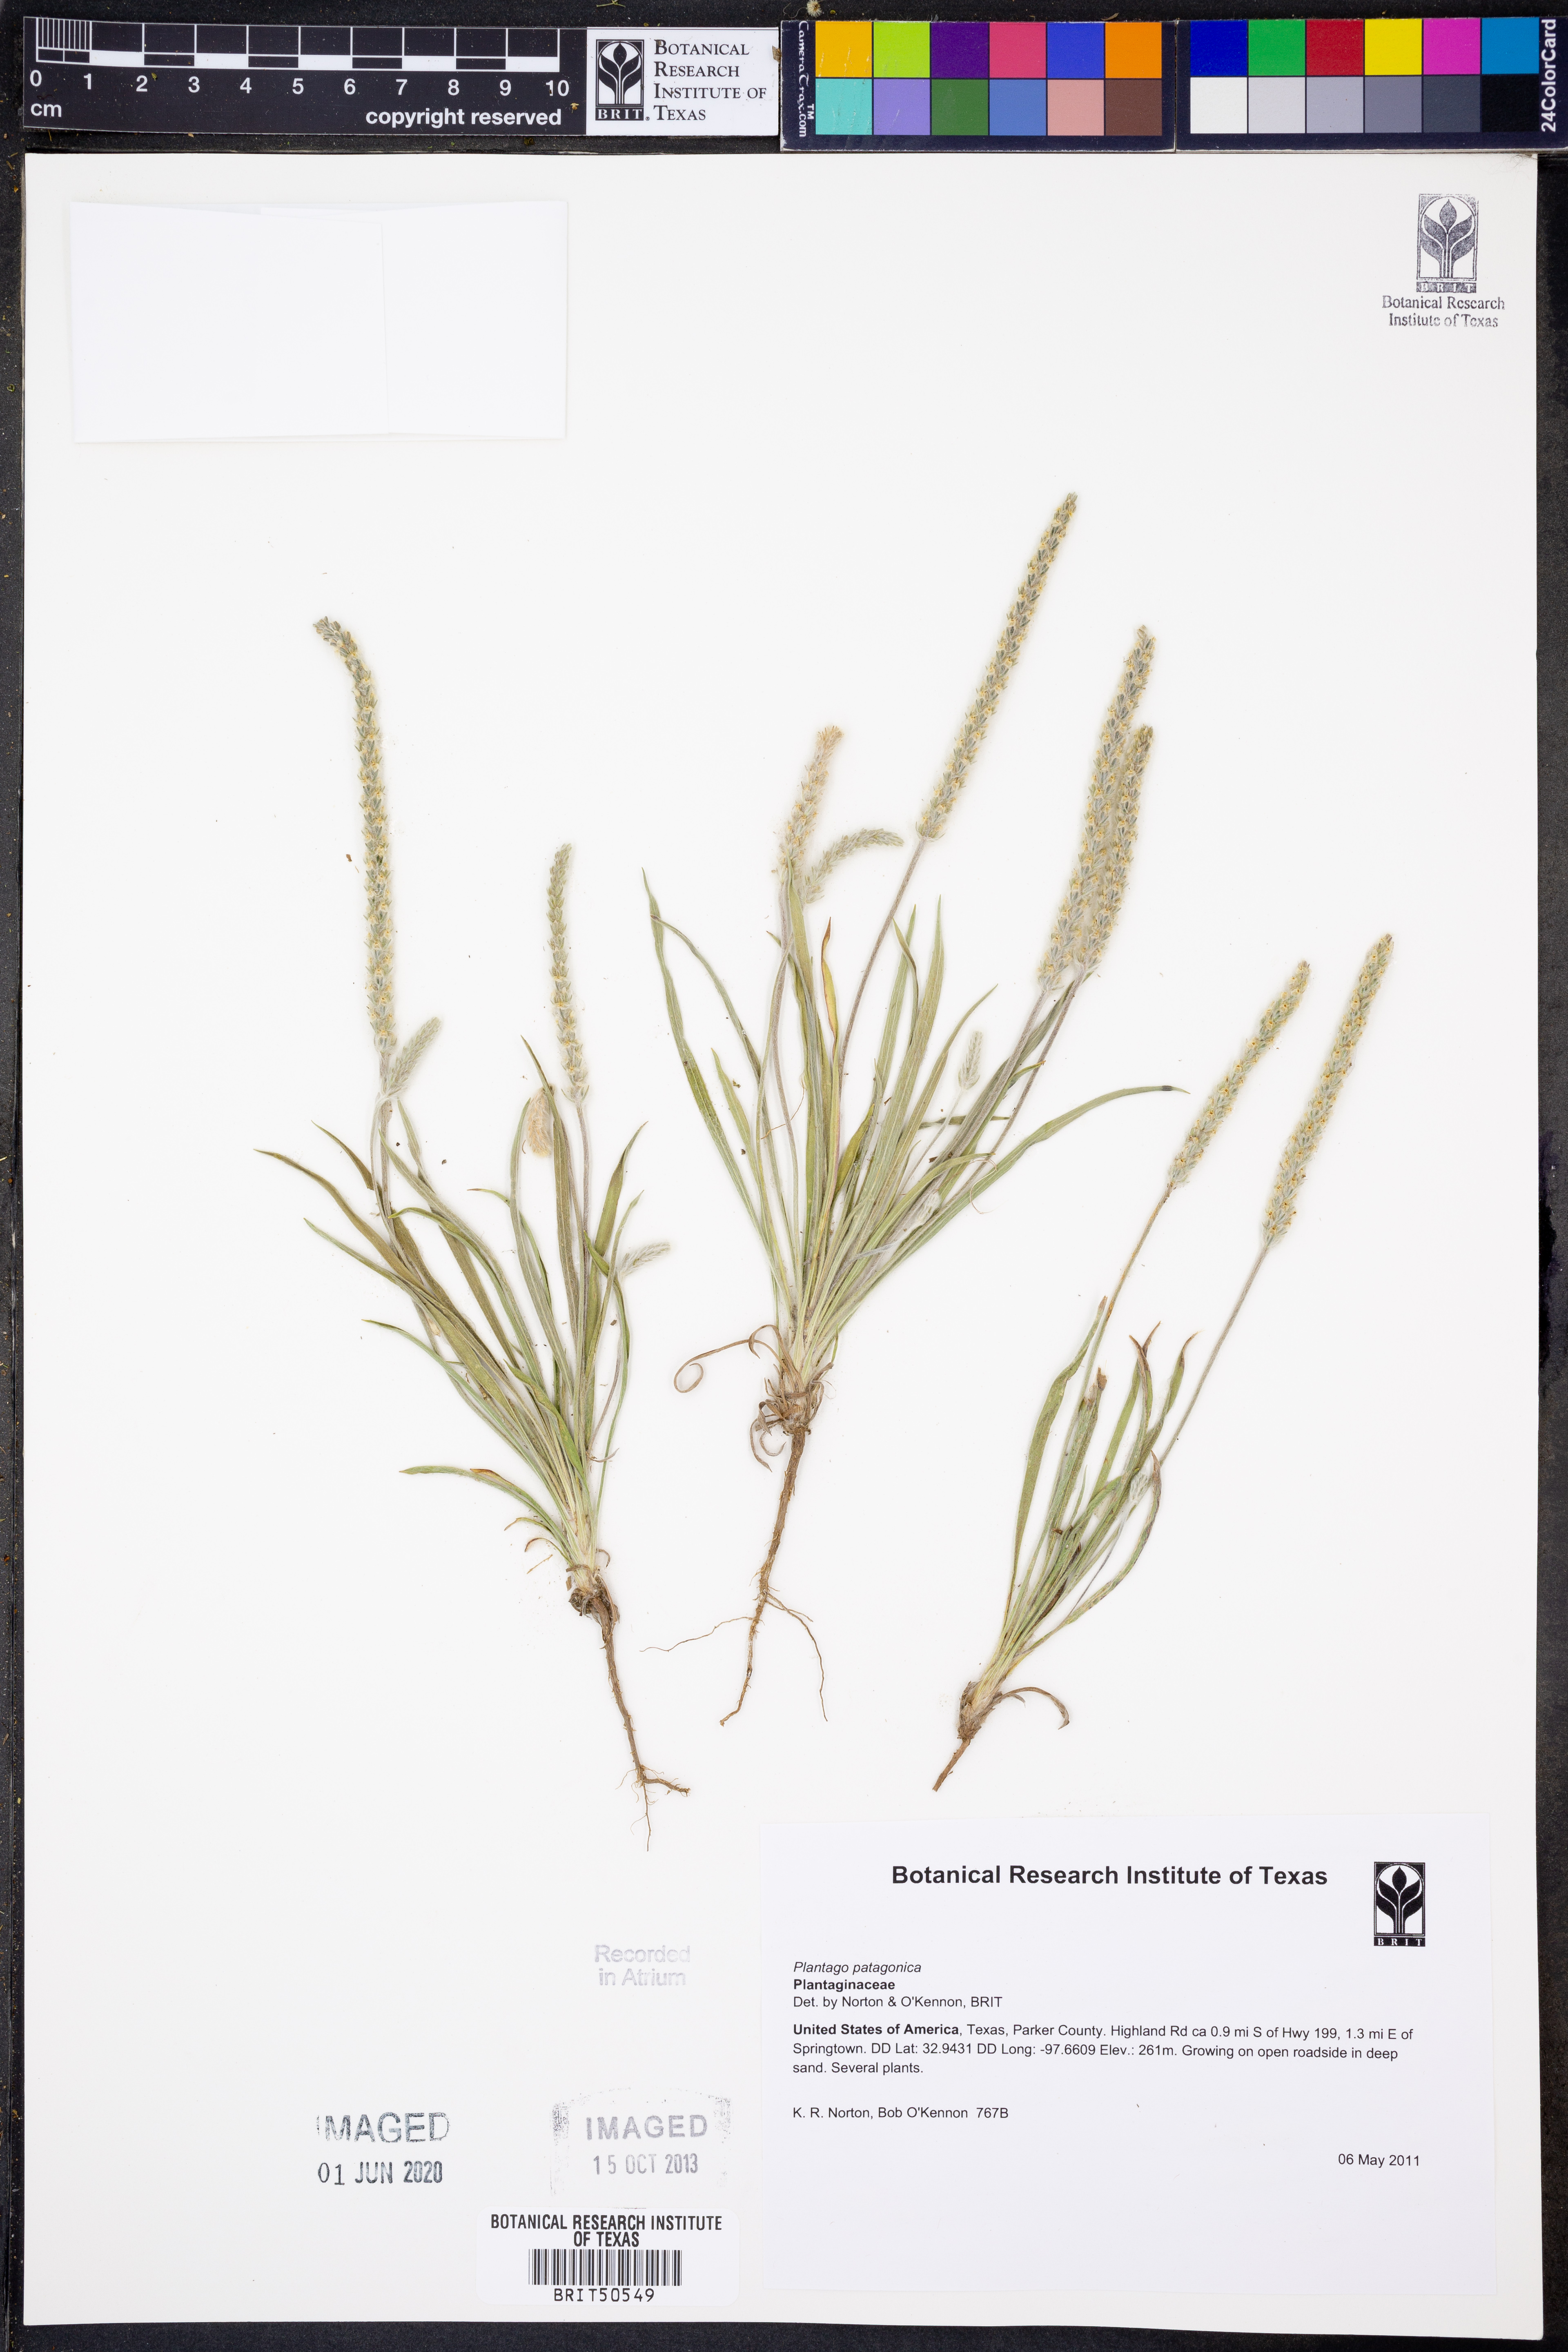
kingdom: Plantae
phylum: Tracheophyta
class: Magnoliopsida
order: Lamiales
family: Plantaginaceae
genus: Plantago
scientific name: Plantago patagonica
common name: Patagonia indian-wheat
